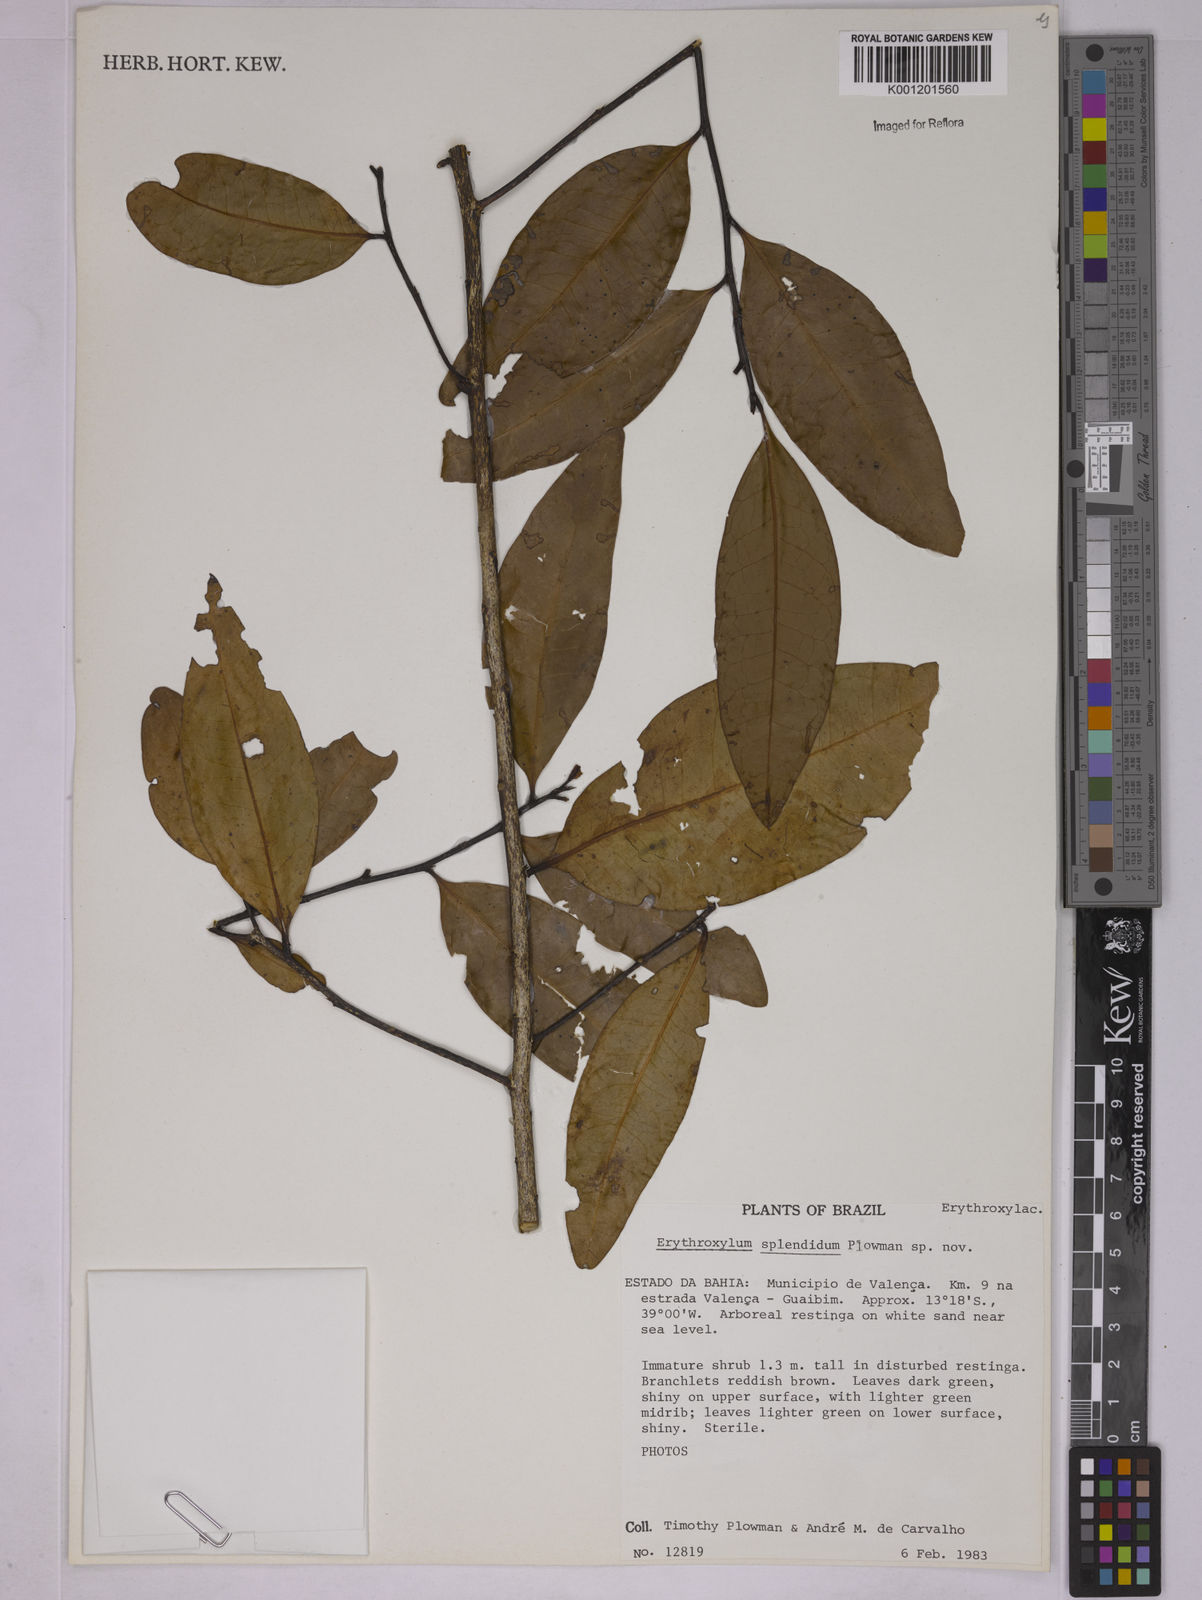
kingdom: Plantae
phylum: Tracheophyta
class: Magnoliopsida
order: Malpighiales
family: Erythroxylaceae
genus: Erythroxylum
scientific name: Erythroxylum splendidum
